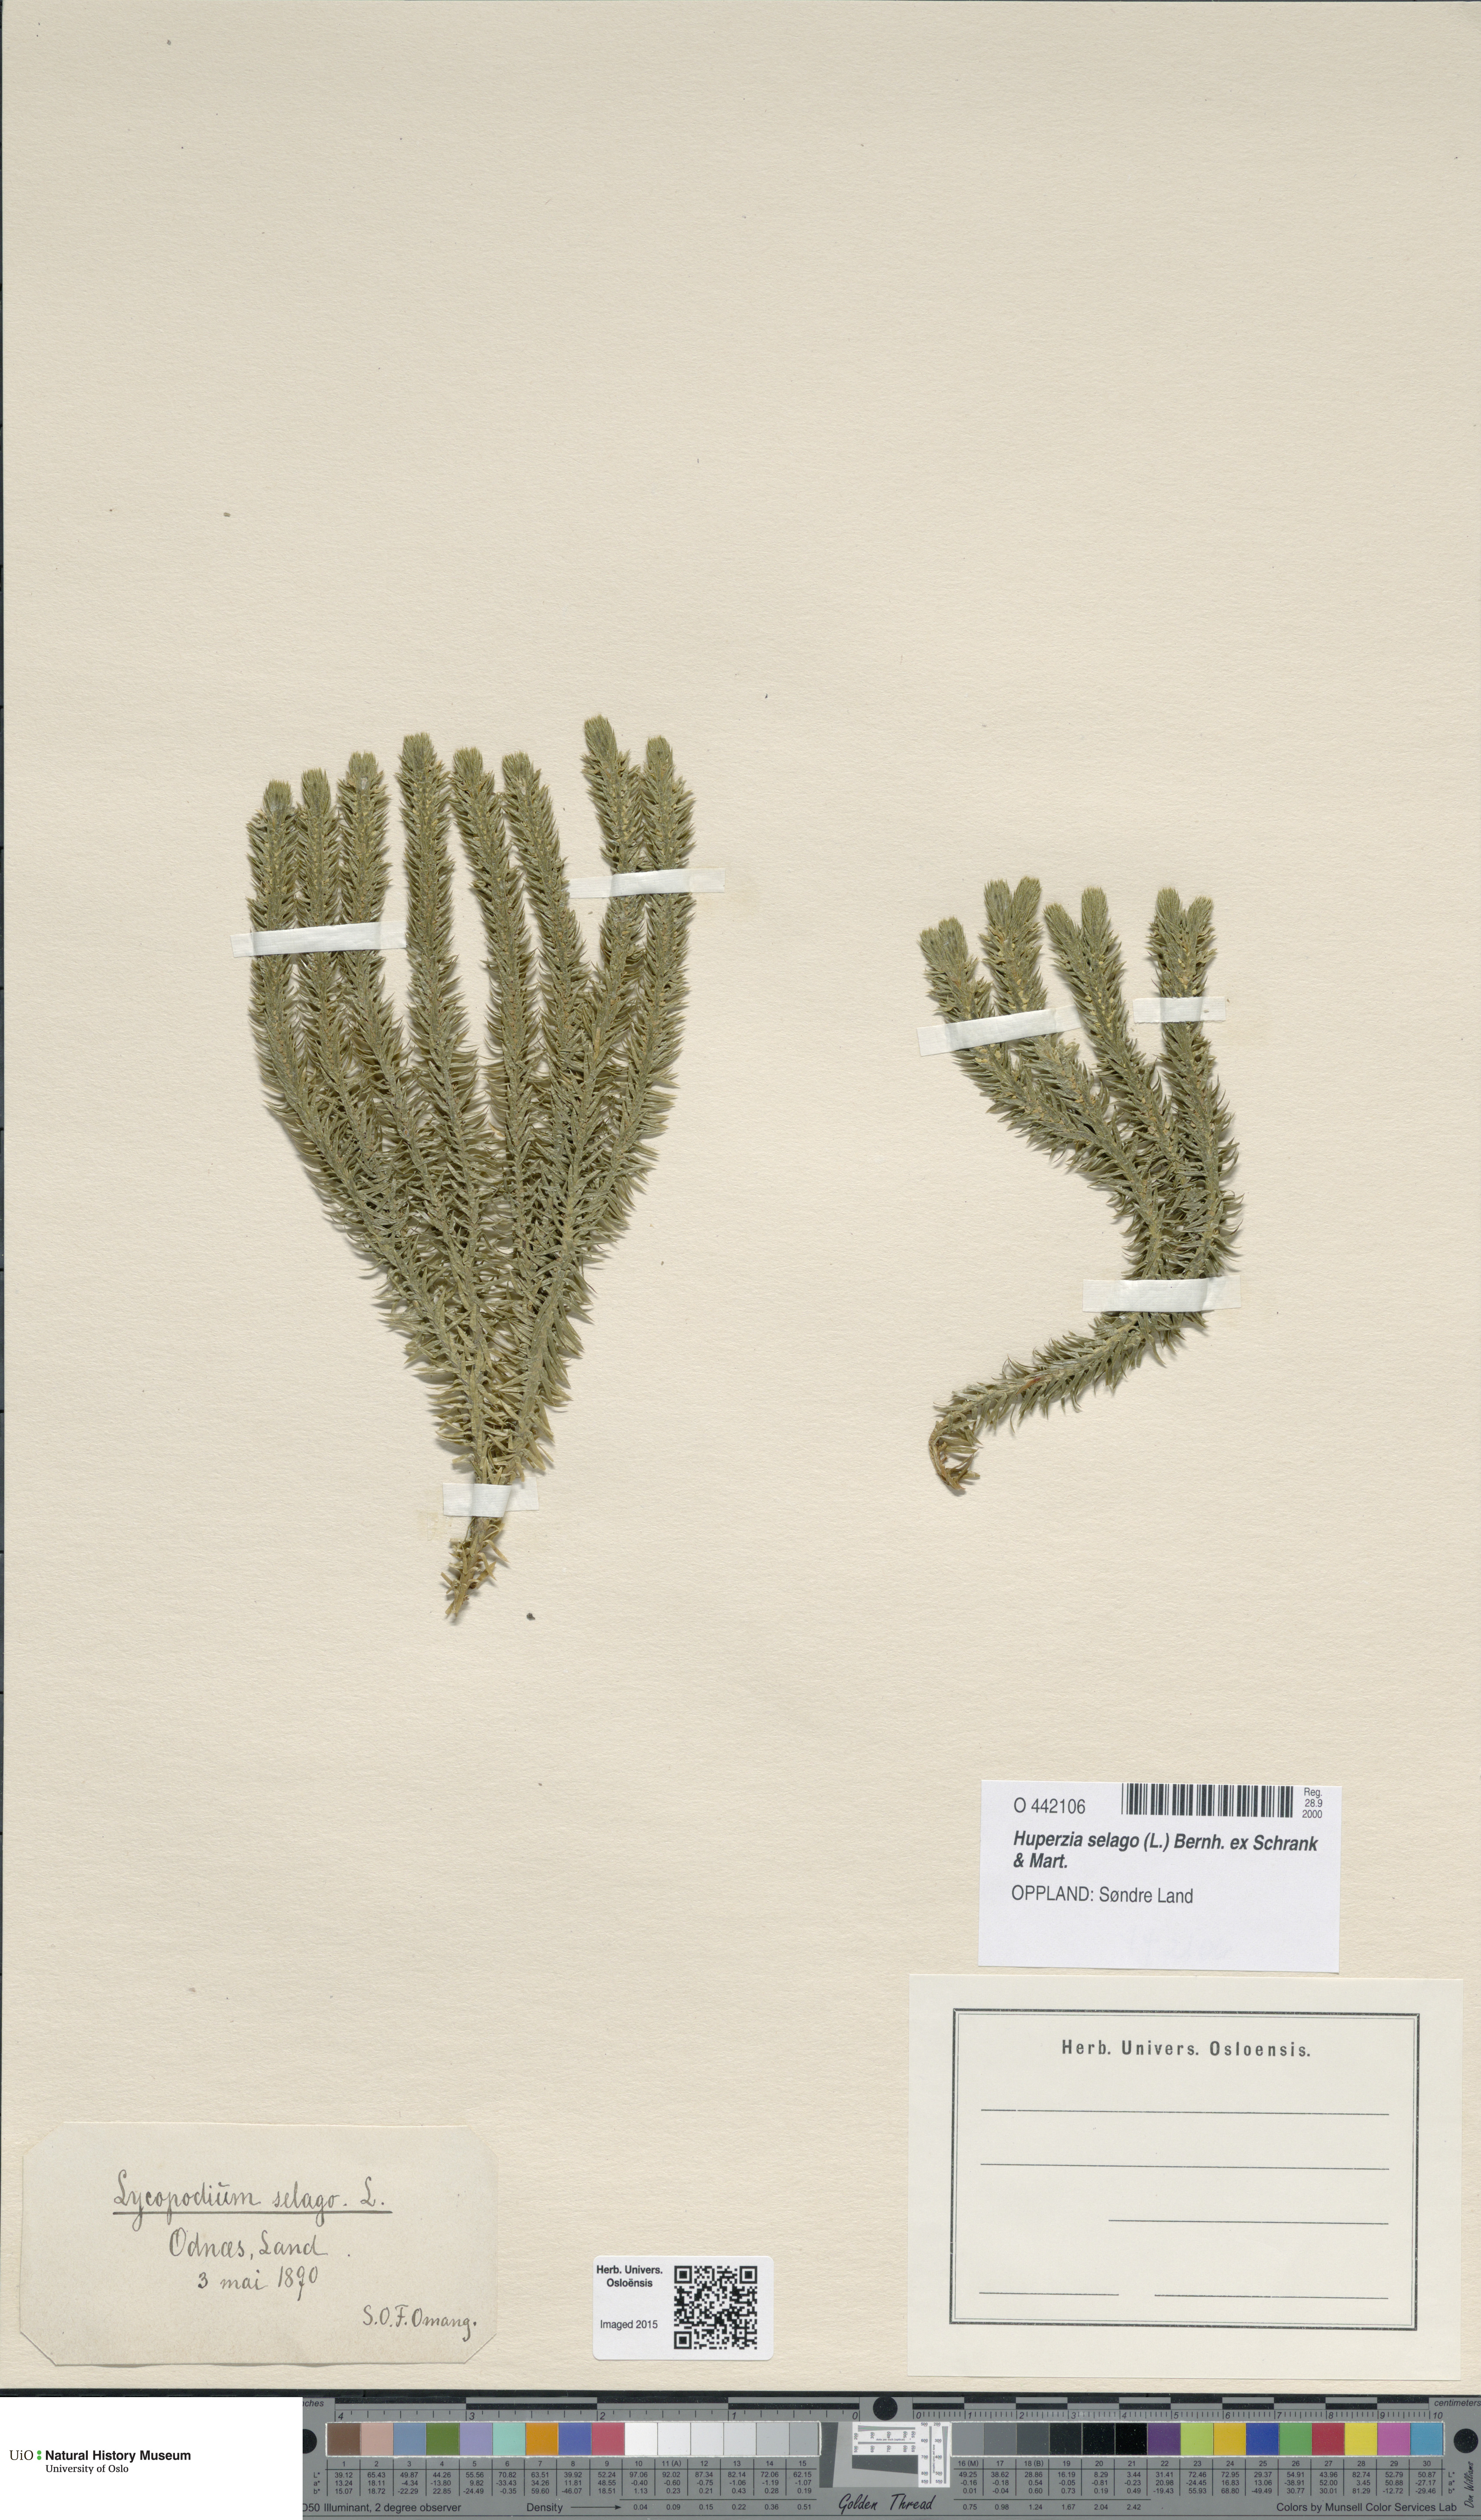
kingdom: Plantae
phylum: Tracheophyta
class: Lycopodiopsida
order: Lycopodiales
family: Lycopodiaceae
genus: Huperzia
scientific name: Huperzia selago
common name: Northern firmoss
